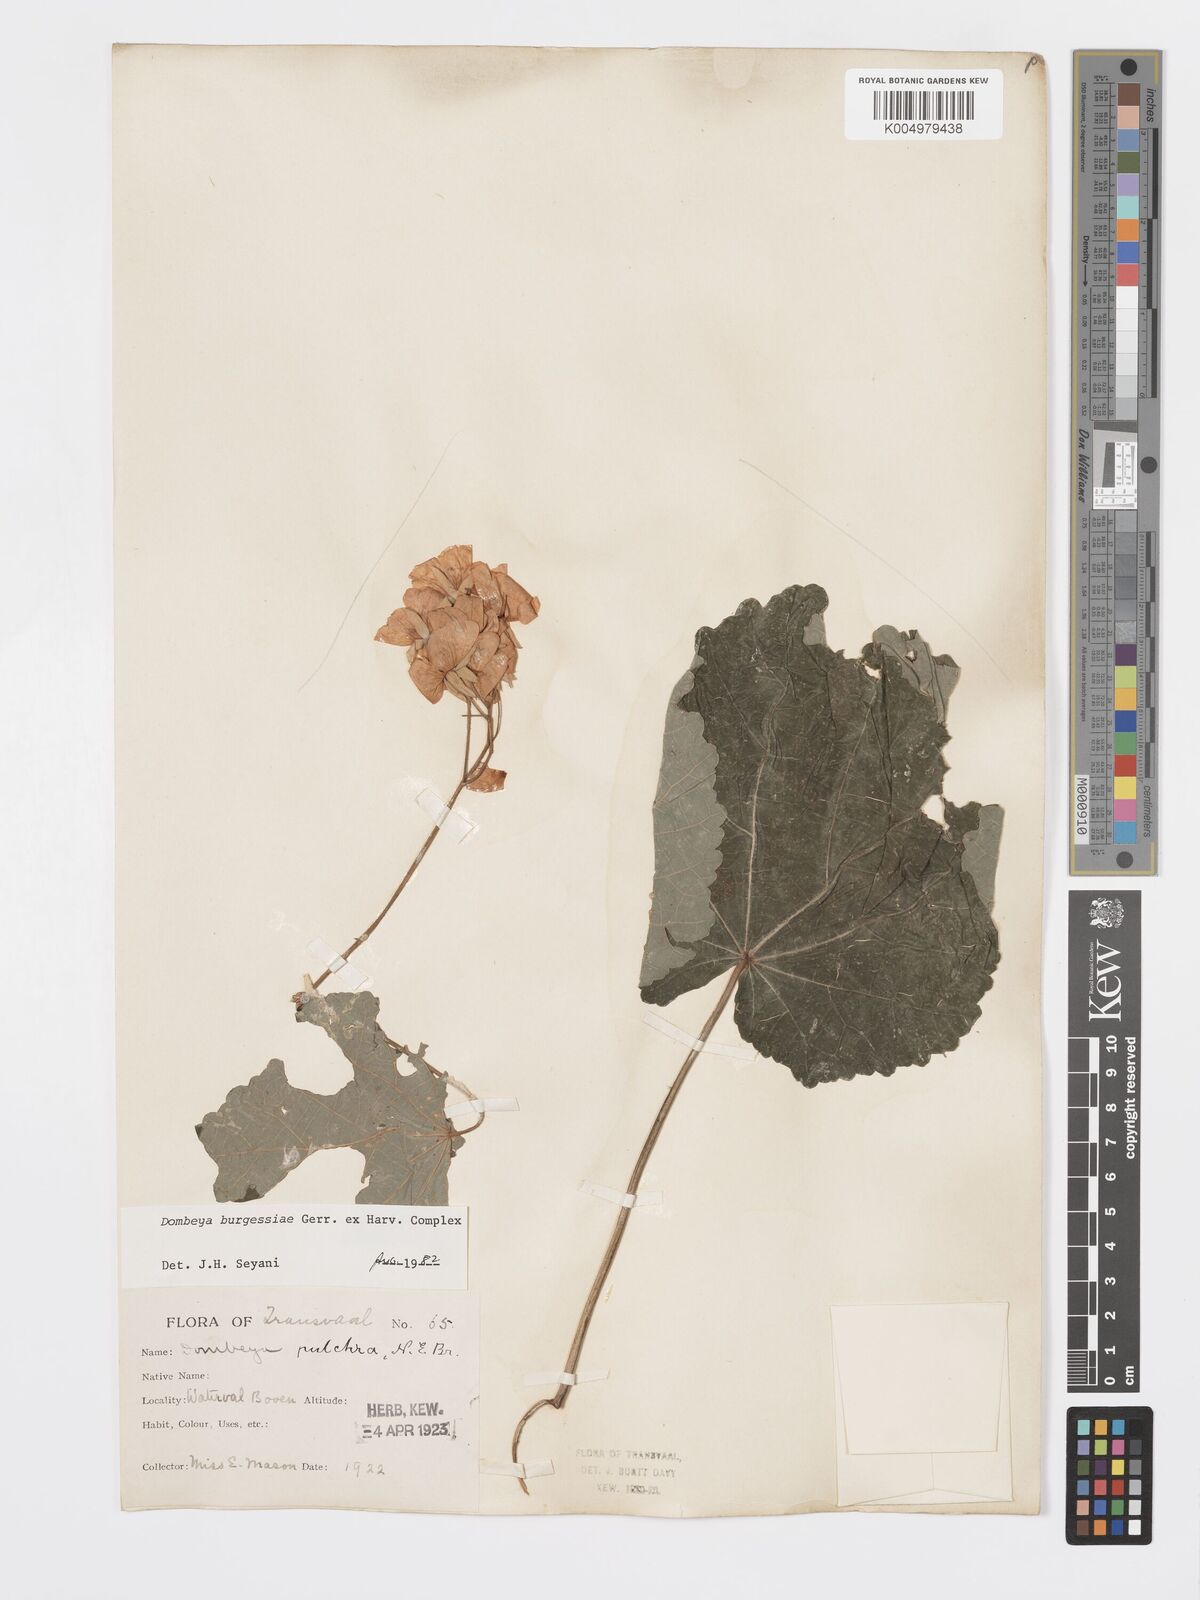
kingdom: Plantae
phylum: Tracheophyta
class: Magnoliopsida
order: Malvales
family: Malvaceae
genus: Dombeya
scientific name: Dombeya burgessiae
